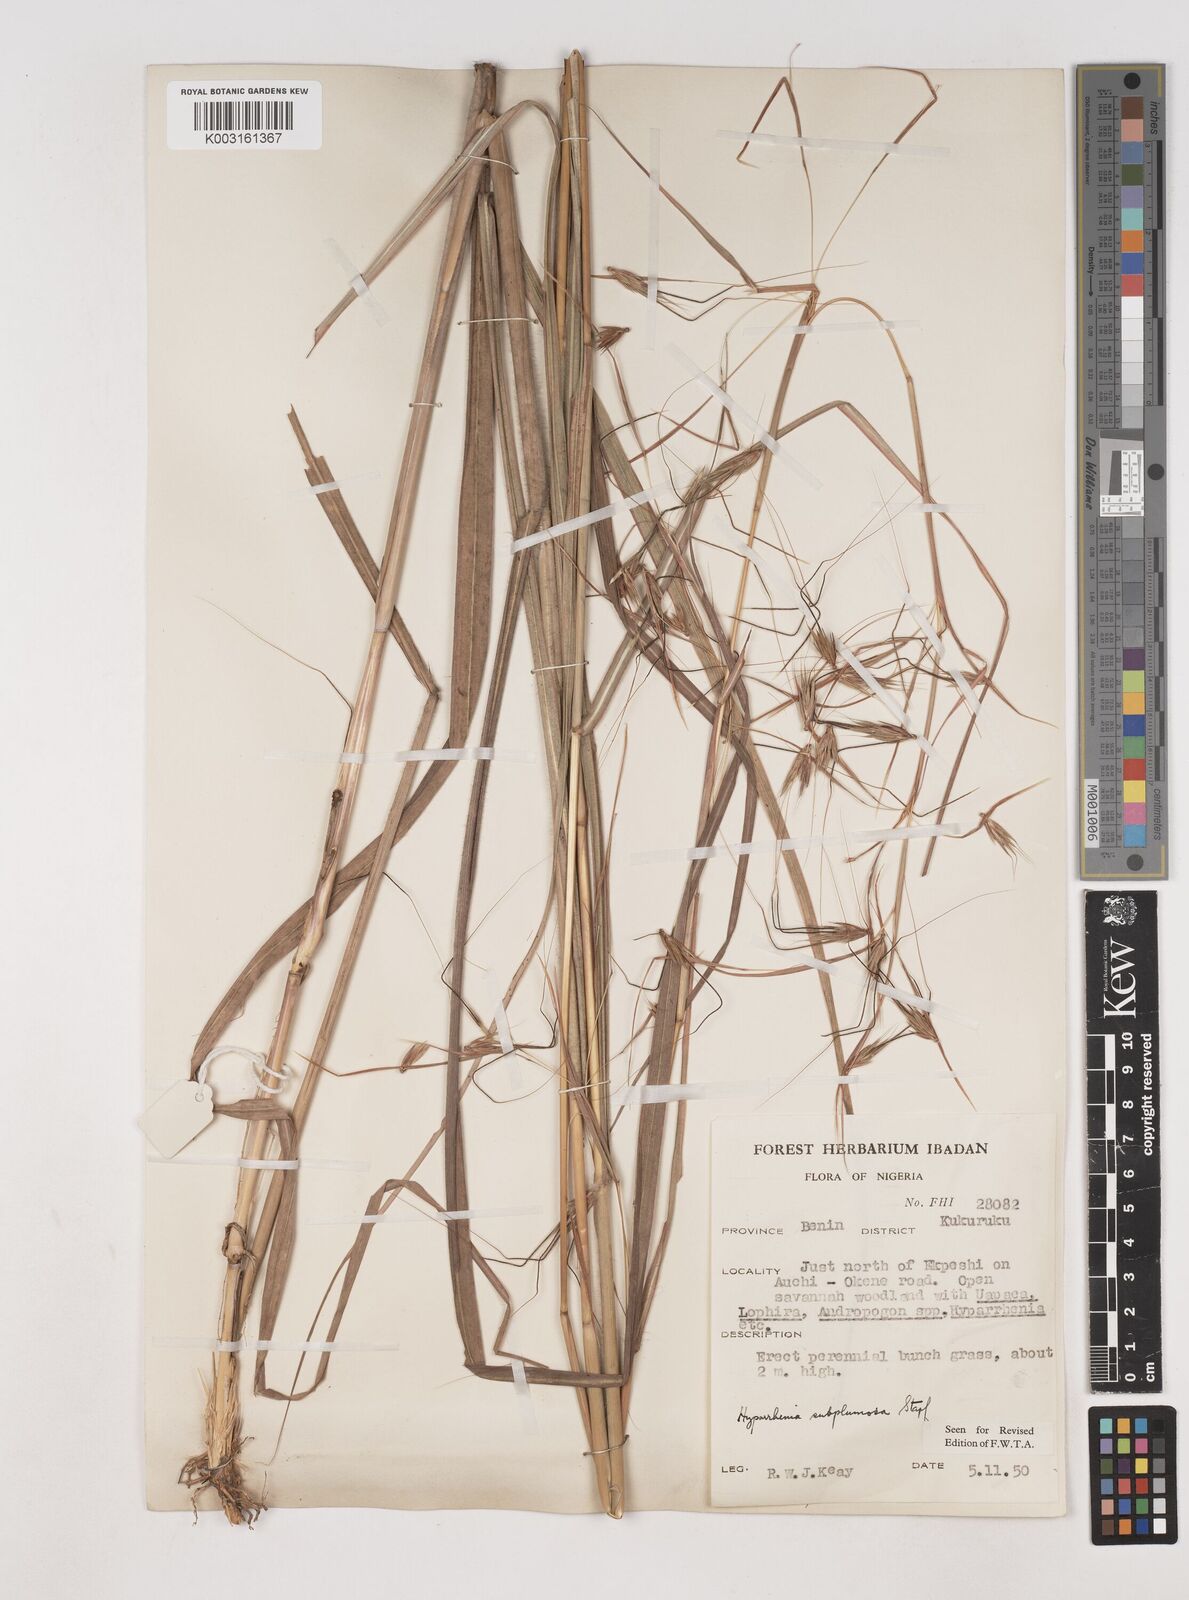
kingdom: Plantae
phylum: Tracheophyta
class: Liliopsida
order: Poales
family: Poaceae
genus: Hyparrhenia
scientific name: Hyparrhenia subplumosa
